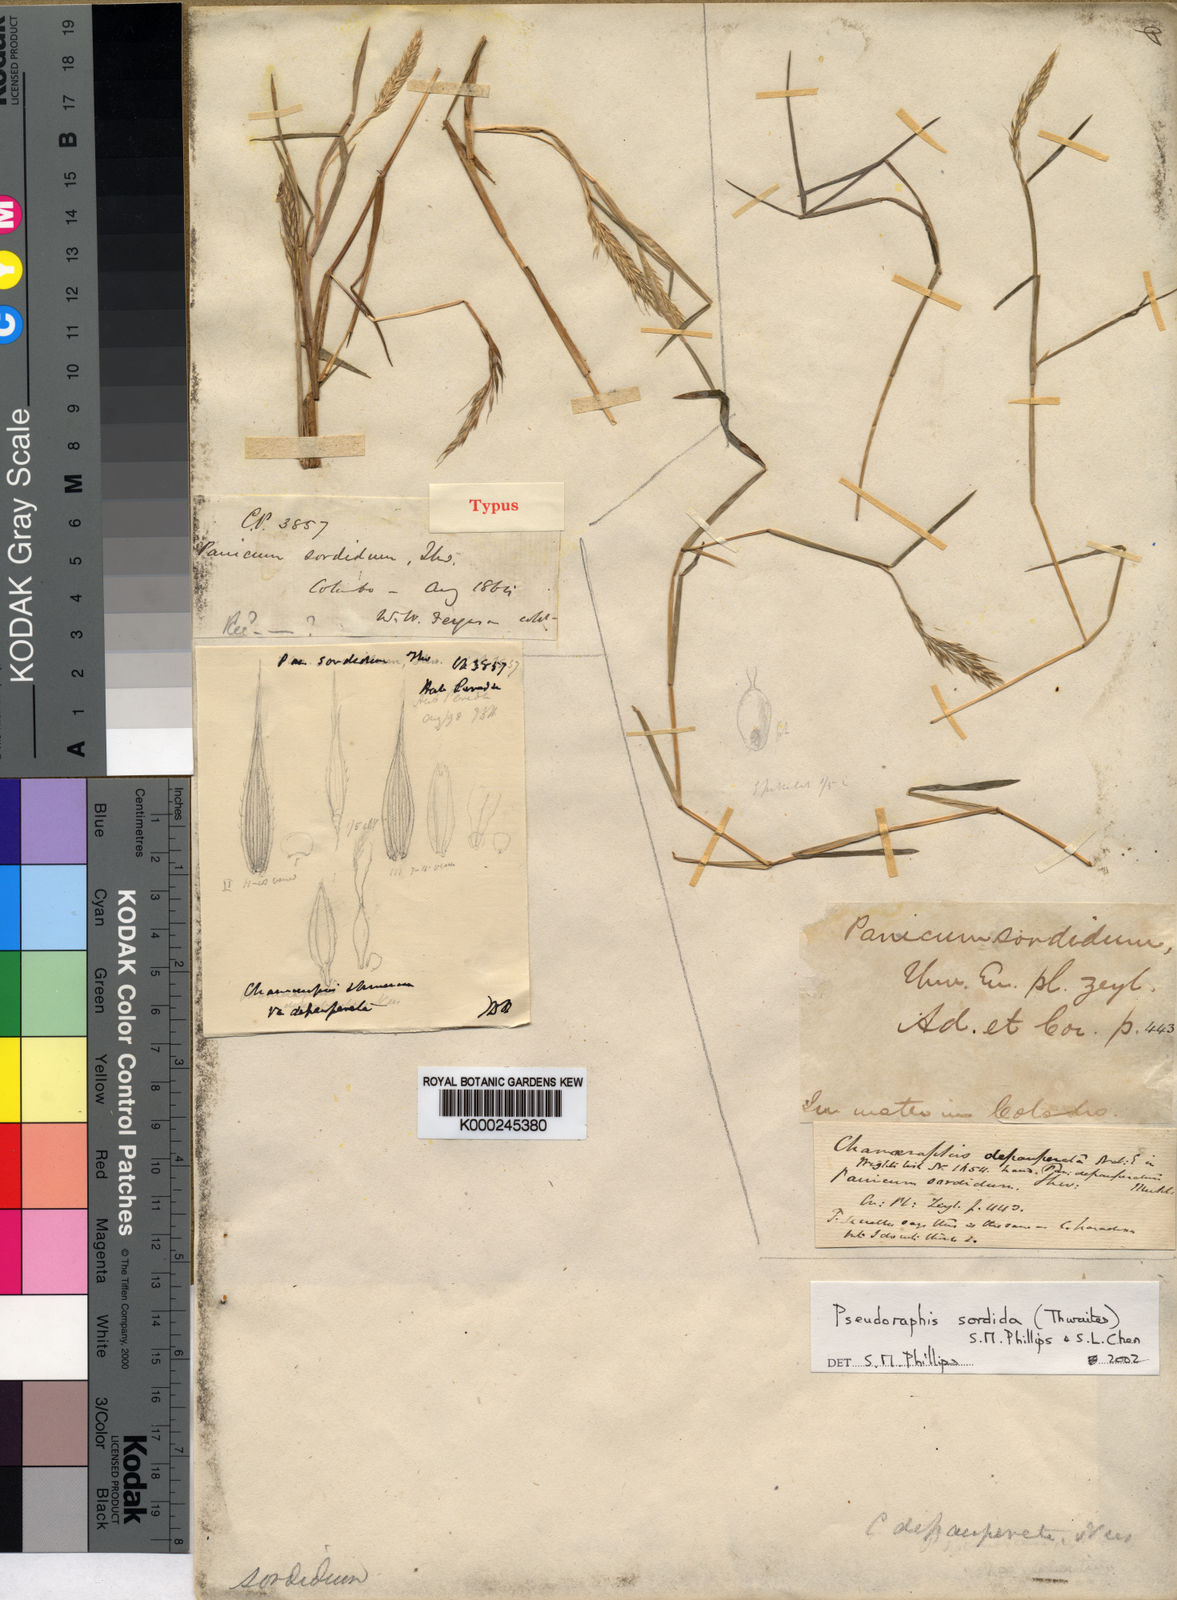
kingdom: Plantae
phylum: Tracheophyta
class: Liliopsida
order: Poales
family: Poaceae
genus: Pseudoraphis
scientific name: Pseudoraphis sordida
